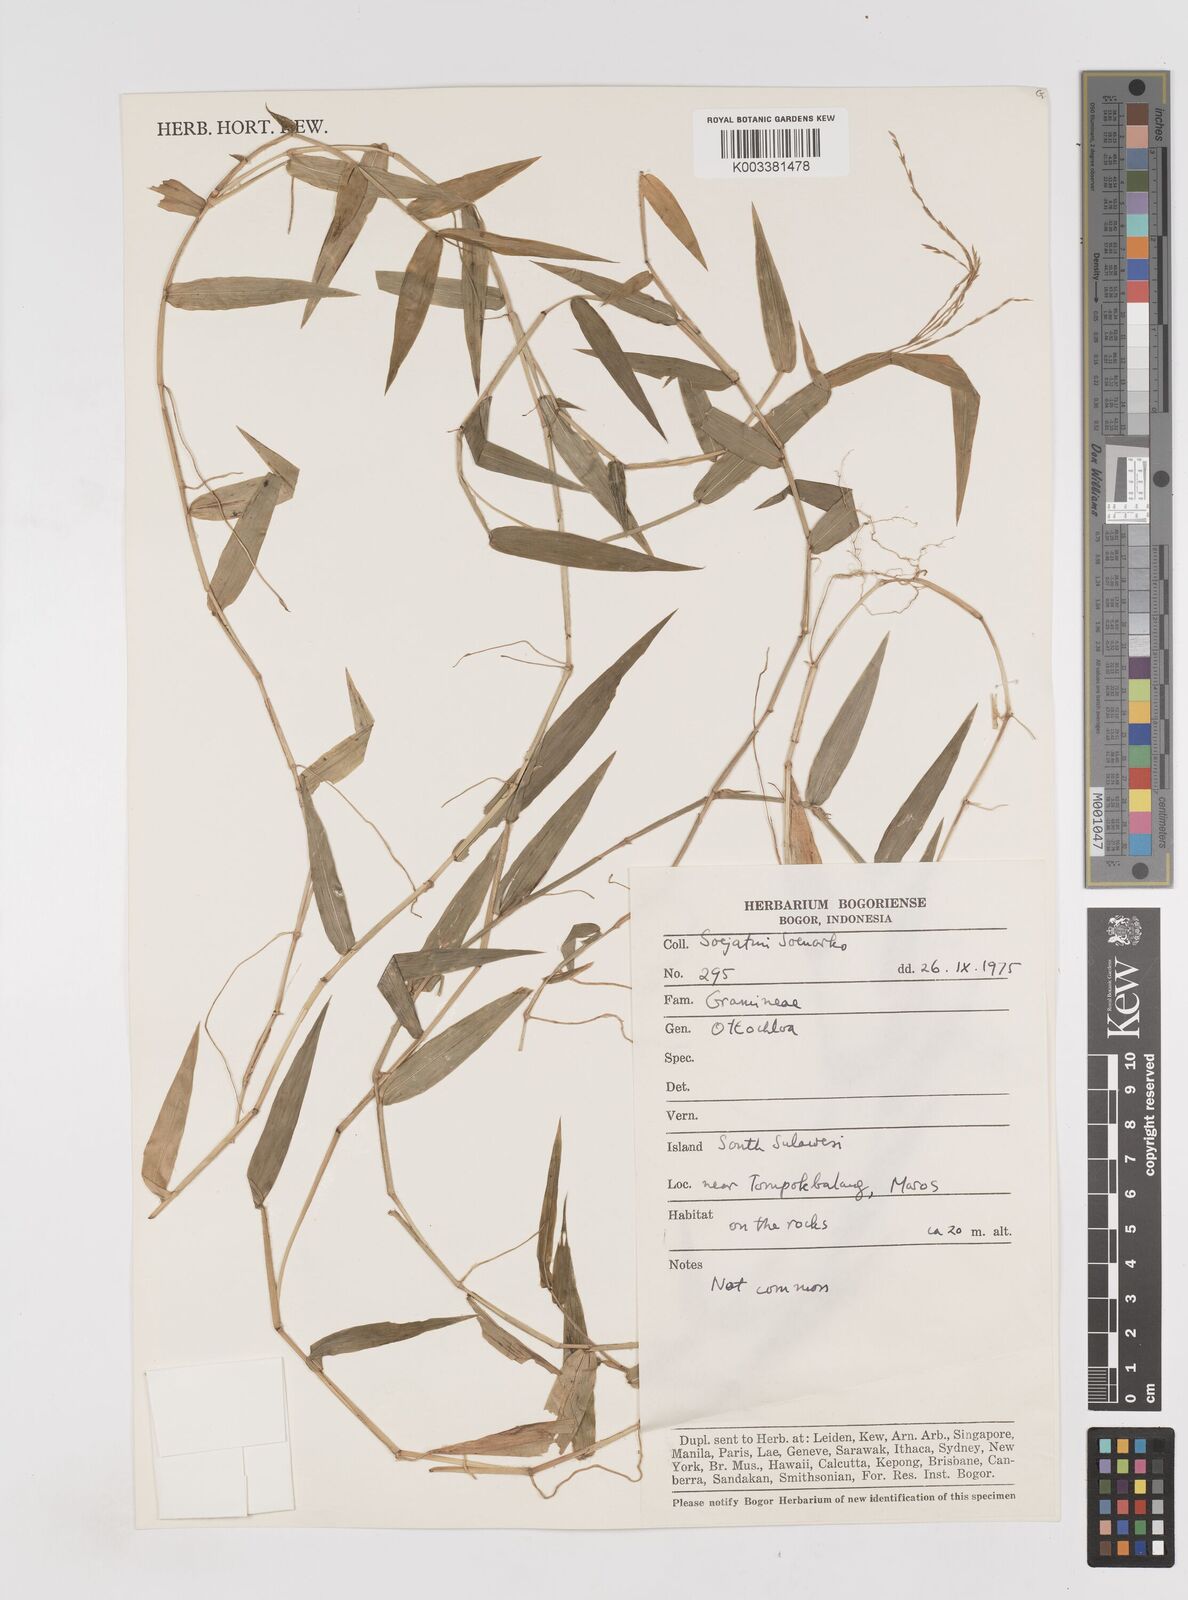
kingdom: Plantae
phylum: Tracheophyta
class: Liliopsida
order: Poales
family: Poaceae
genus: Ottochloa
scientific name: Ottochloa nodosa
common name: Slender-panic grass
